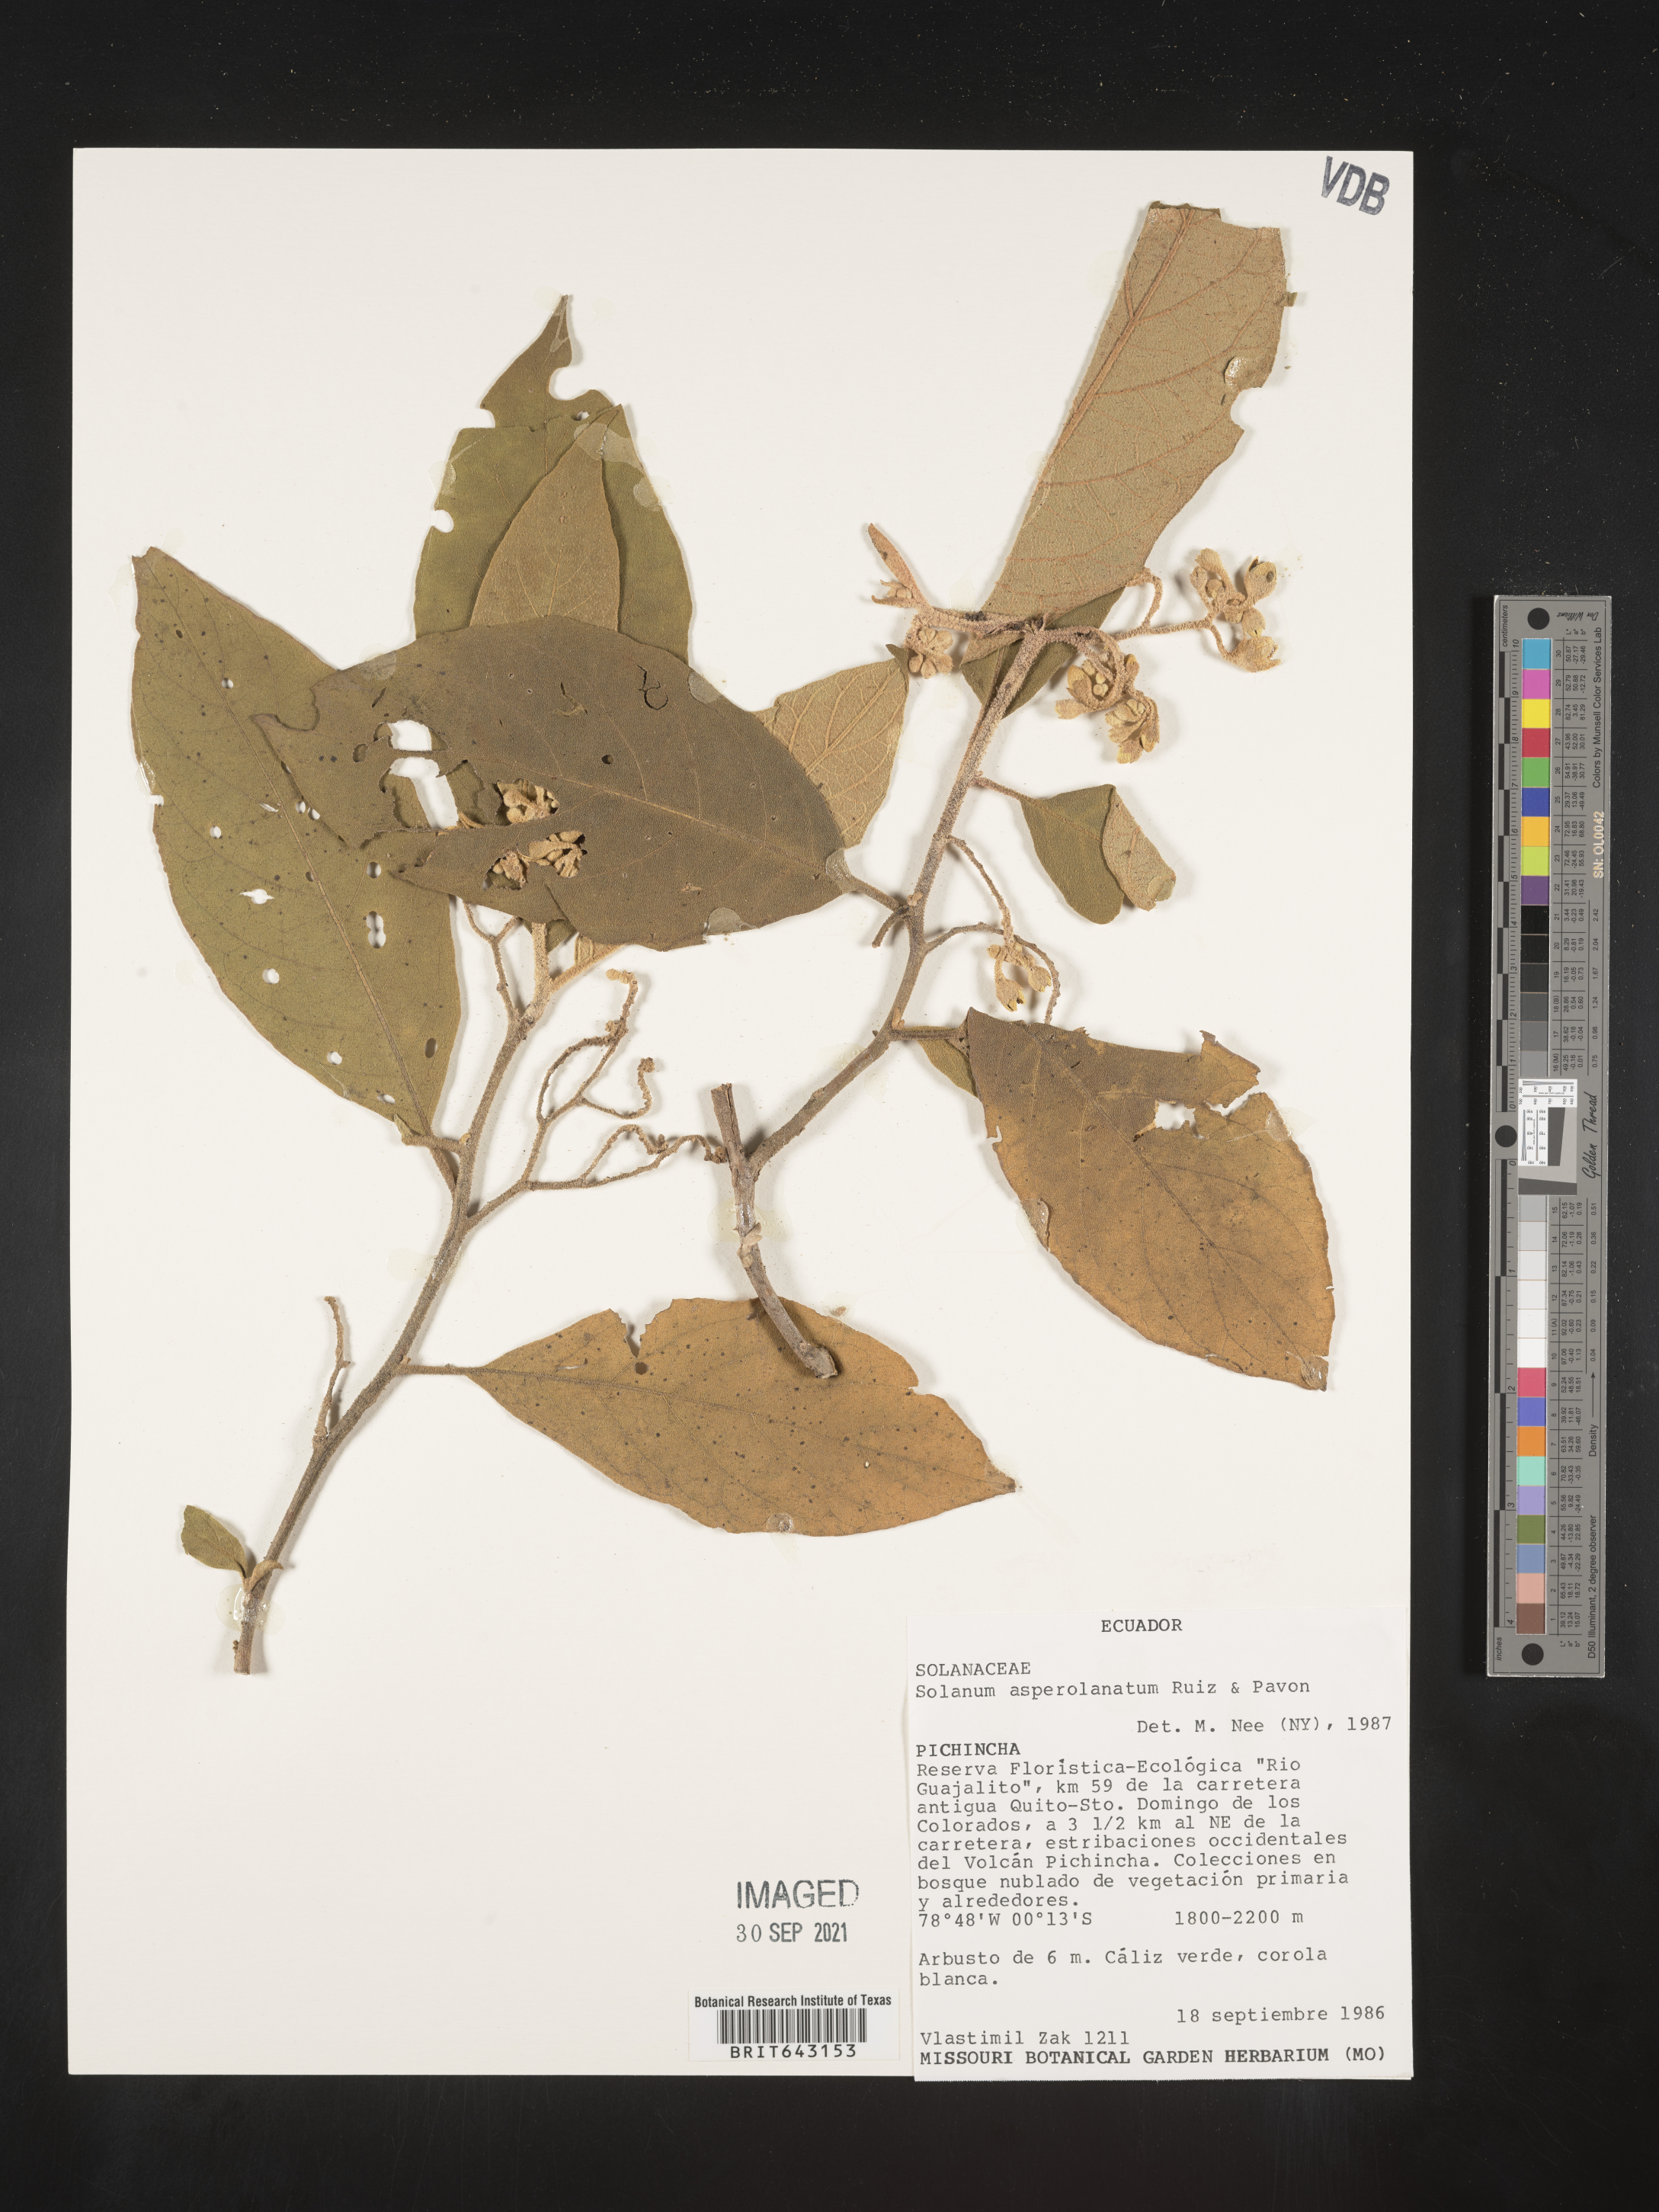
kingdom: Plantae
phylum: Tracheophyta
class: Magnoliopsida
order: Solanales
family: Solanaceae
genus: Solanum
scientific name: Solanum
